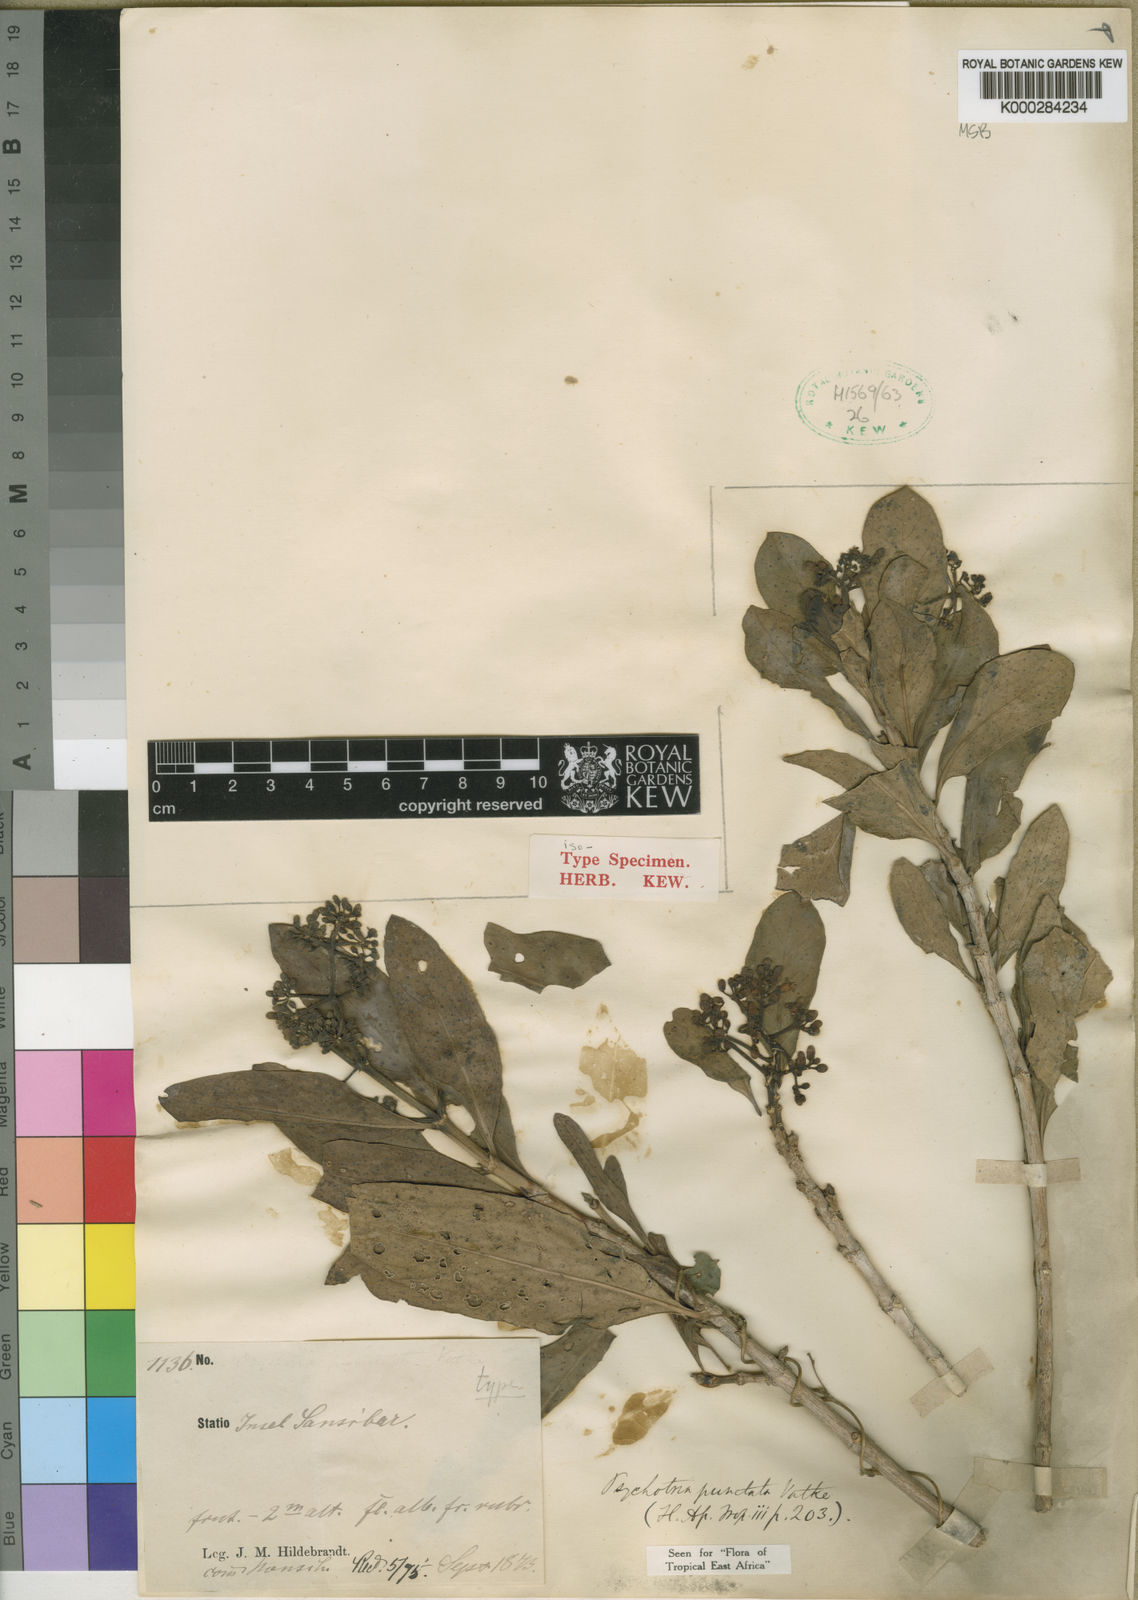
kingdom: Plantae
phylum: Tracheophyta
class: Magnoliopsida
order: Gentianales
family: Rubiaceae
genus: Psychotria
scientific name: Psychotria punctata
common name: Dotted wild coffee
